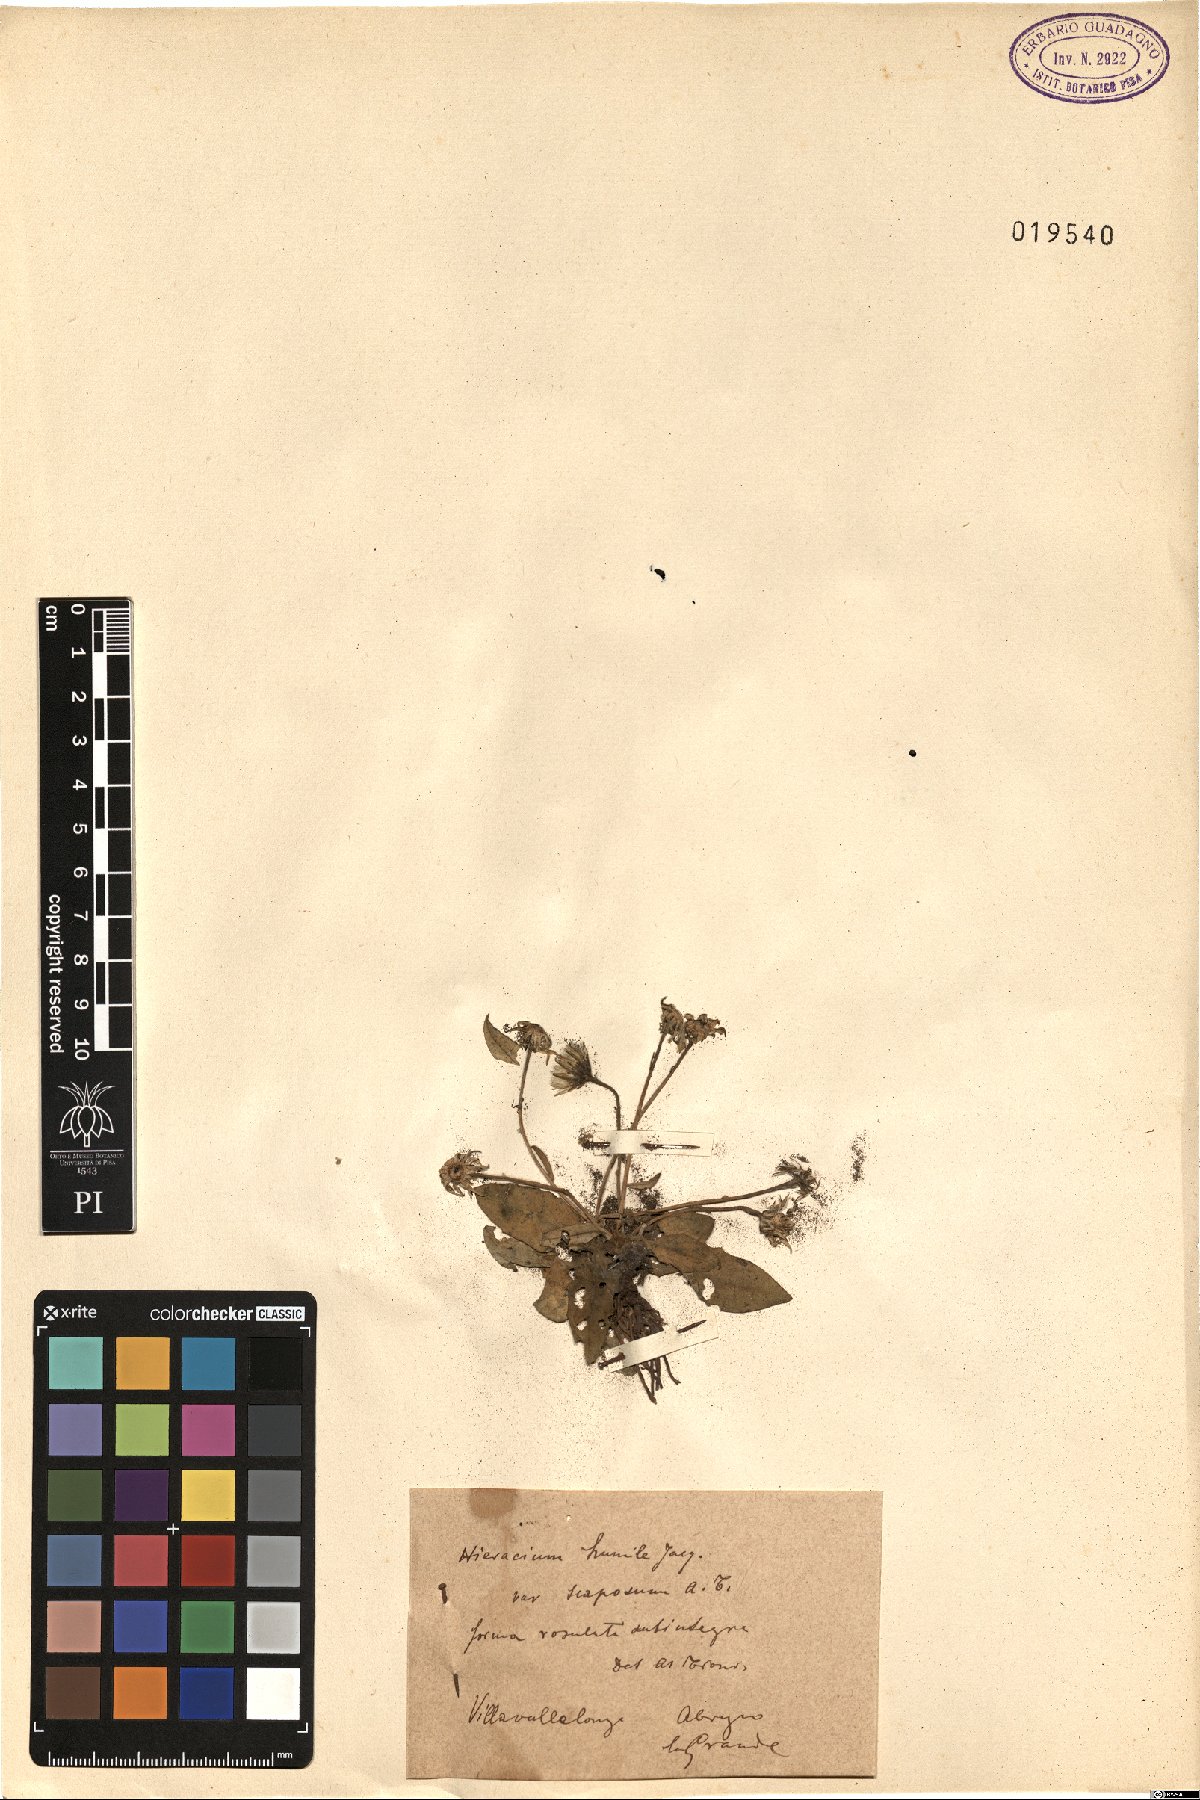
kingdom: Plantae
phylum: Tracheophyta
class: Magnoliopsida
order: Asterales
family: Asteraceae
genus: Hieracium
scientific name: Hieracium humile
